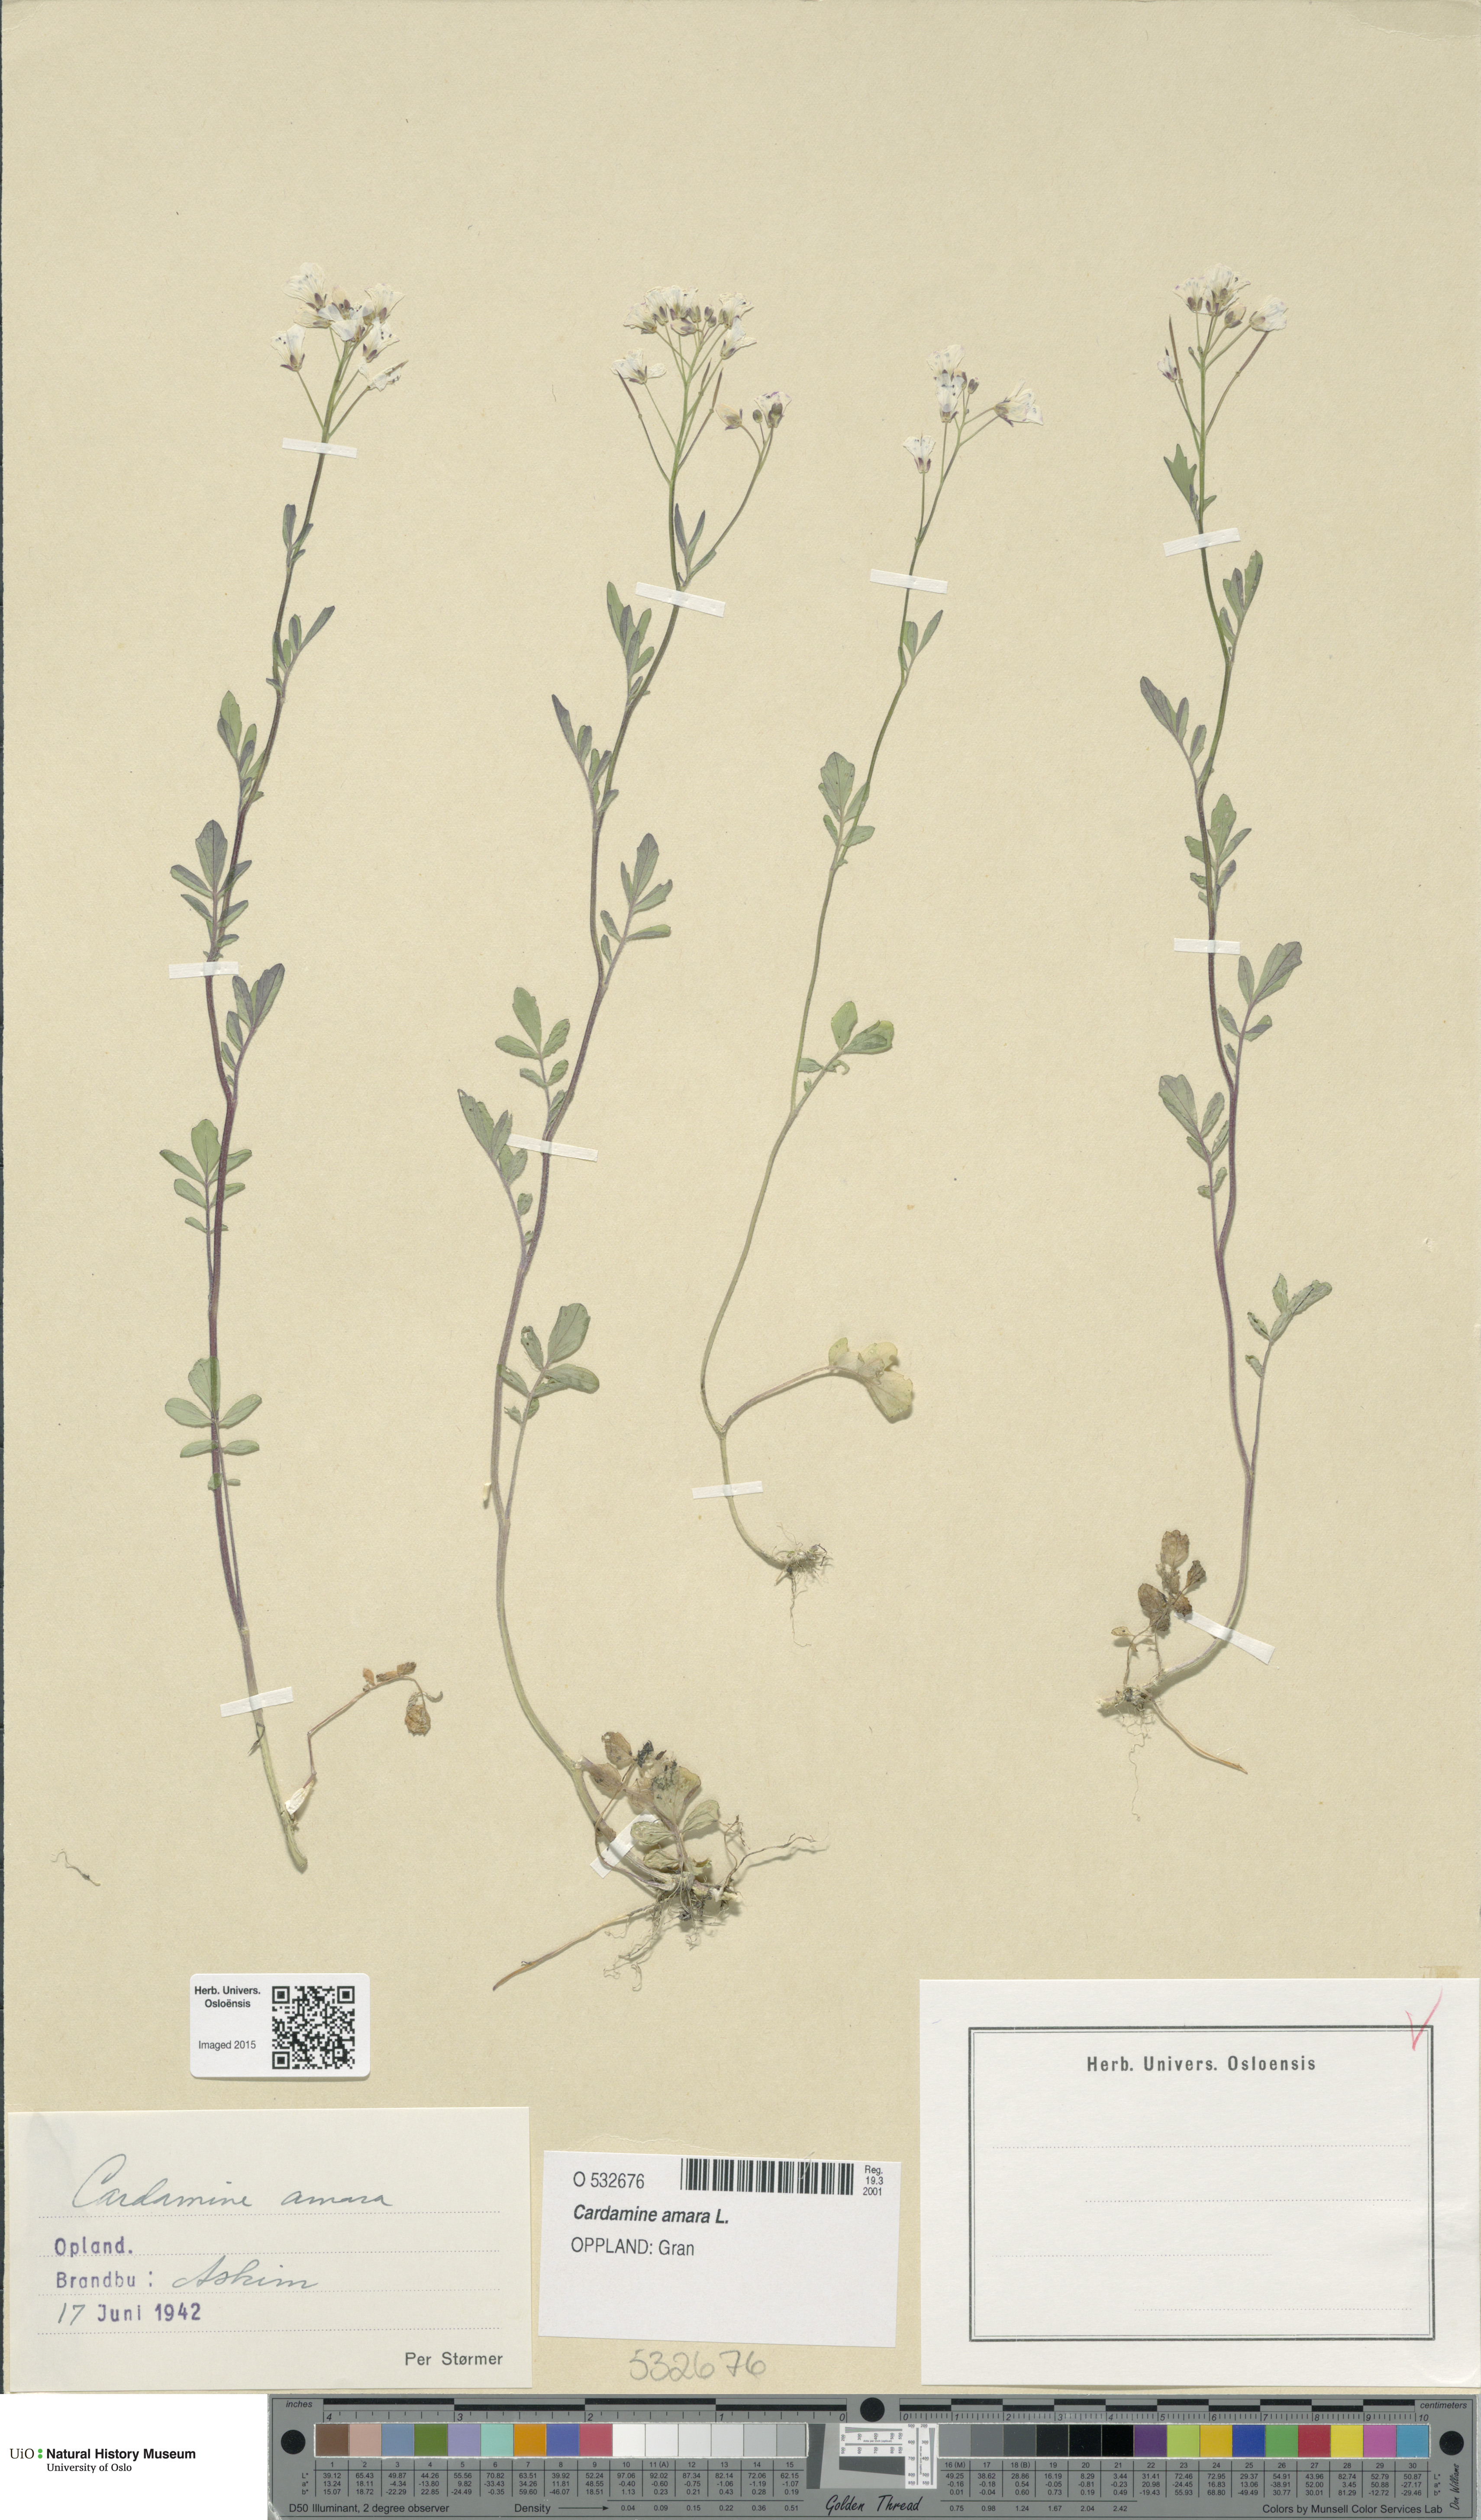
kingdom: Plantae
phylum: Tracheophyta
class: Magnoliopsida
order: Brassicales
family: Brassicaceae
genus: Cardamine
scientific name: Cardamine amara
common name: Large bitter-cress
